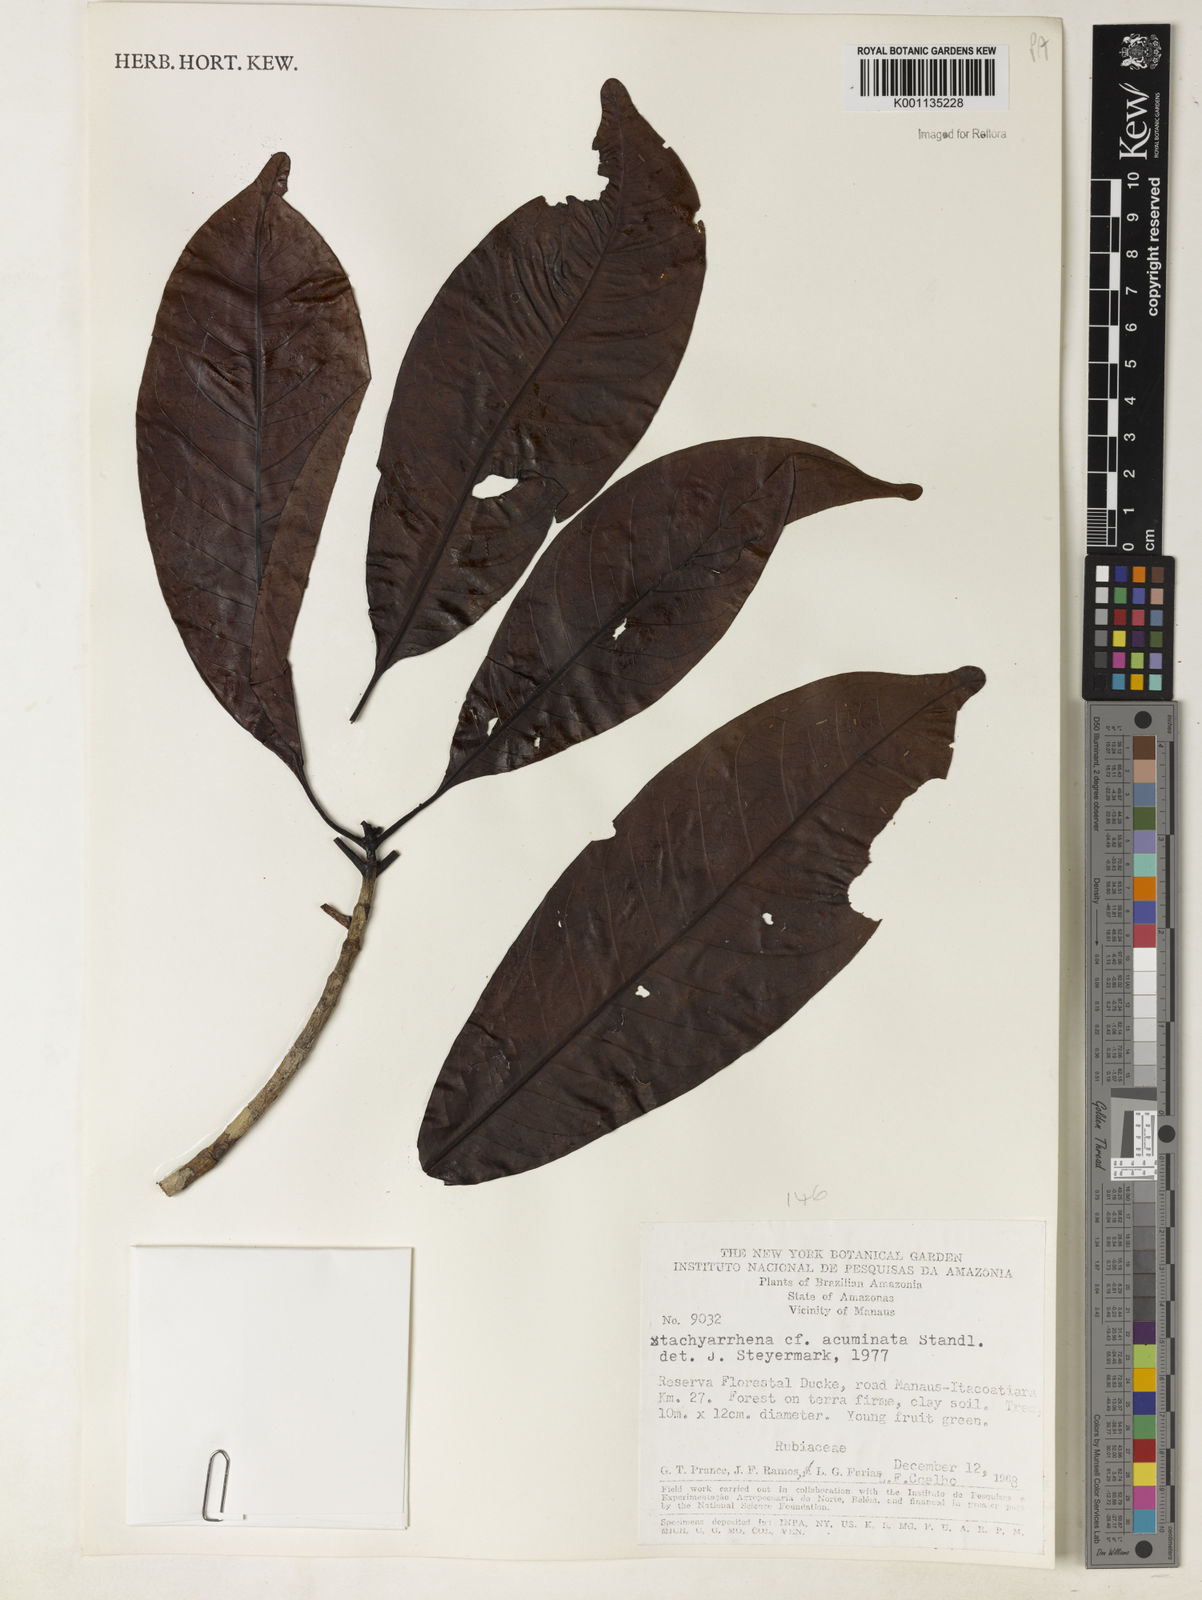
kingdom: Plantae
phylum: Tracheophyta
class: Magnoliopsida
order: Gentianales
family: Rubiaceae
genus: Stachyarrhena
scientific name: Stachyarrhena acuminata
